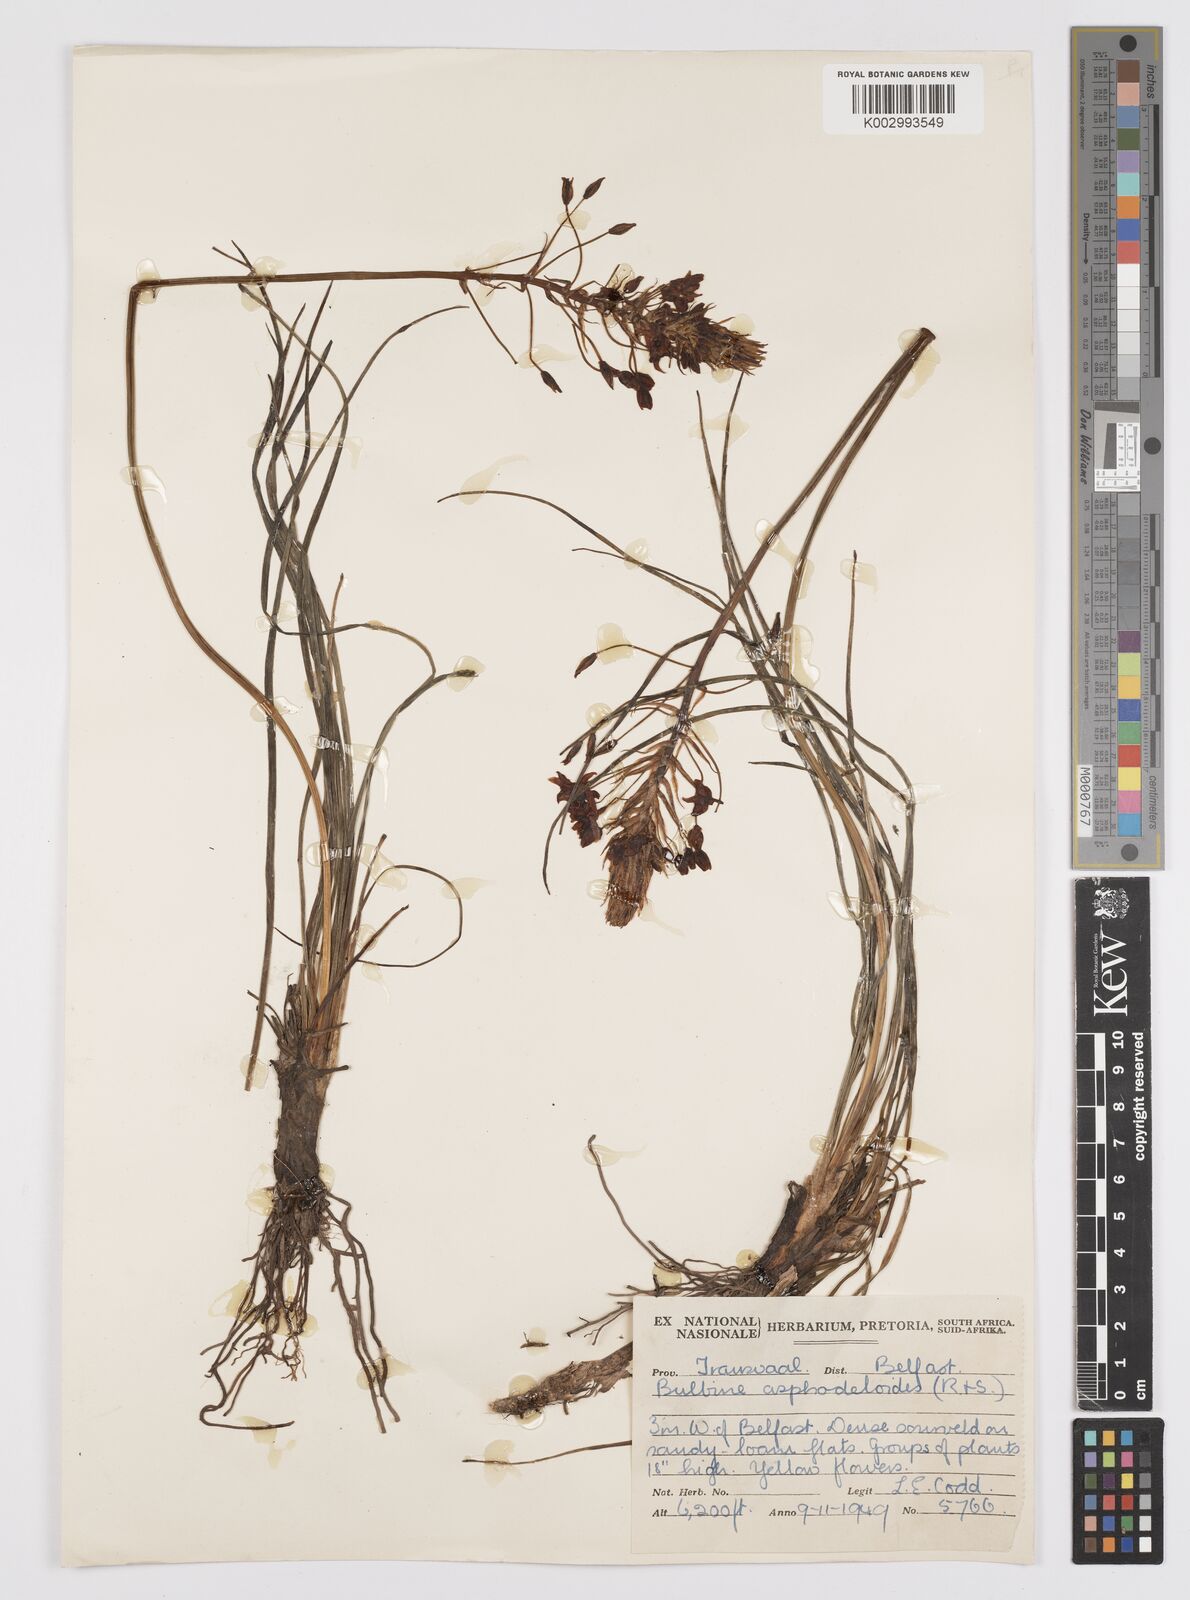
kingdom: Plantae
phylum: Tracheophyta
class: Liliopsida
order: Asparagales
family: Asphodelaceae
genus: Bulbine
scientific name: Bulbine abyssinica
